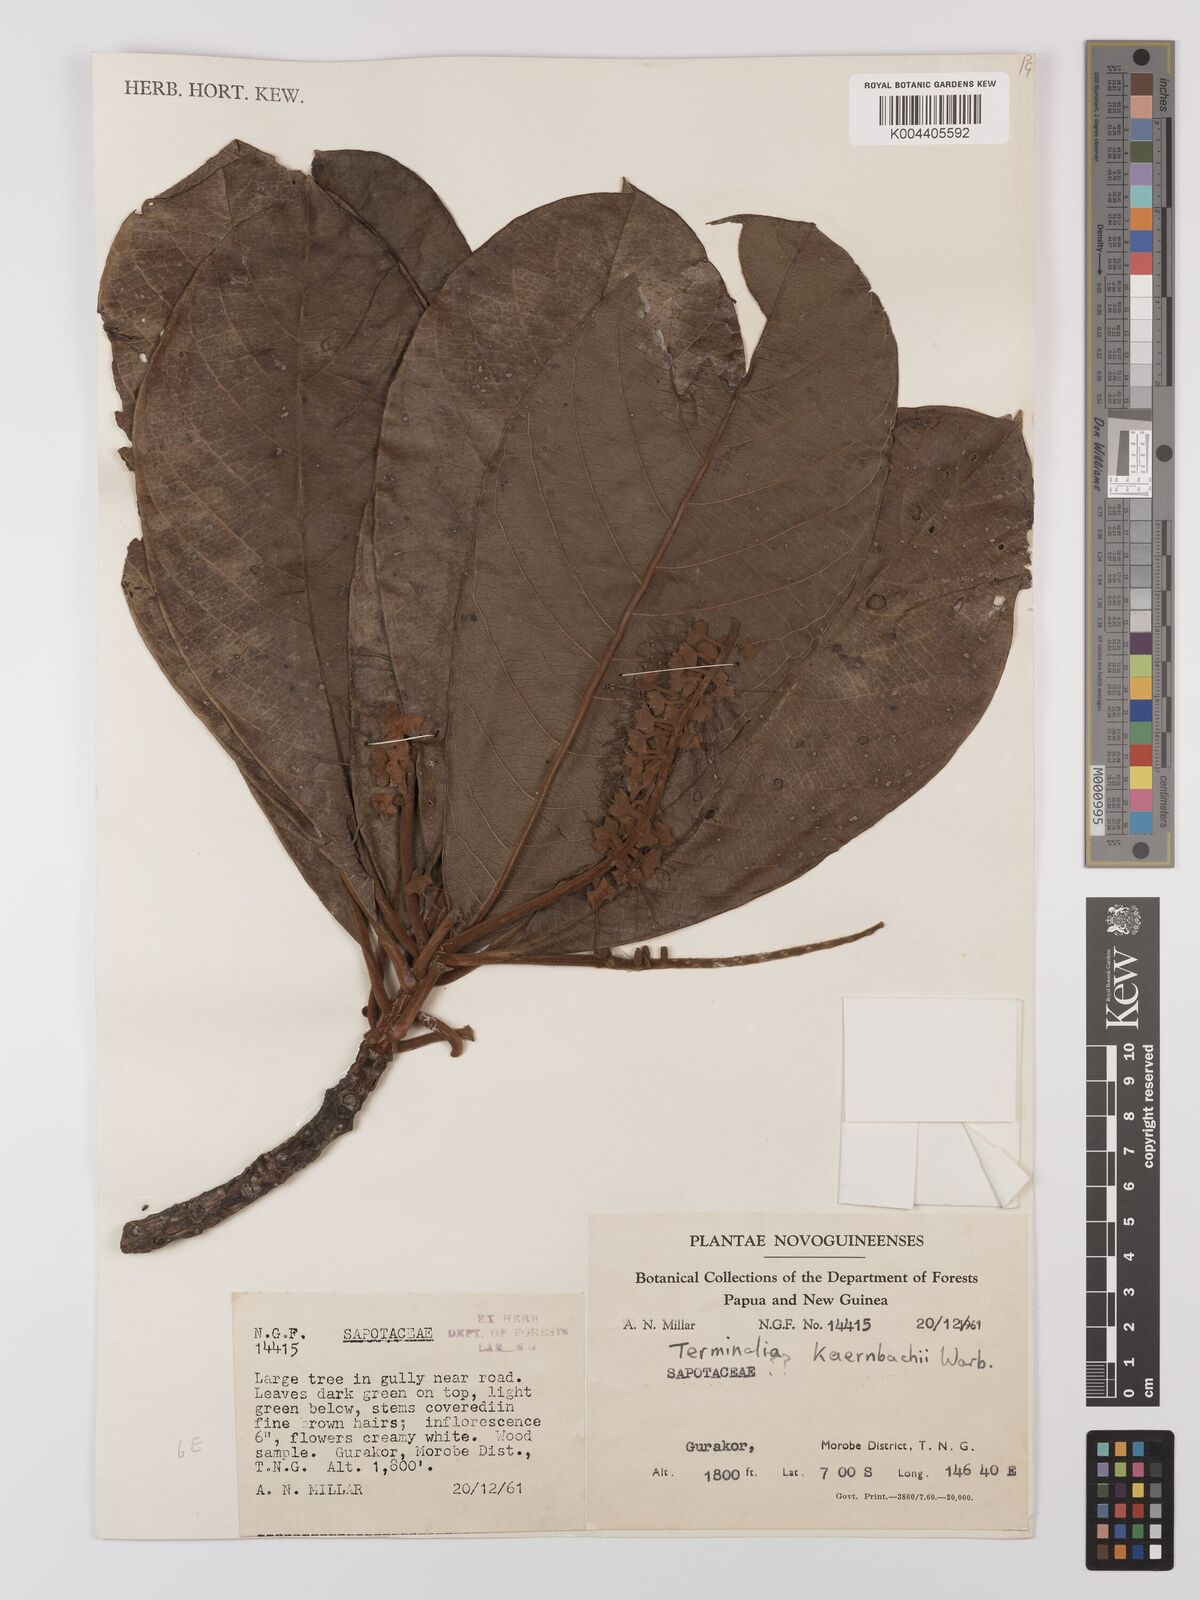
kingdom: Plantae
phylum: Tracheophyta
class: Magnoliopsida
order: Myrtales
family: Combretaceae
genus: Terminalia
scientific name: Terminalia kaernbachii
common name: Okari-nut
